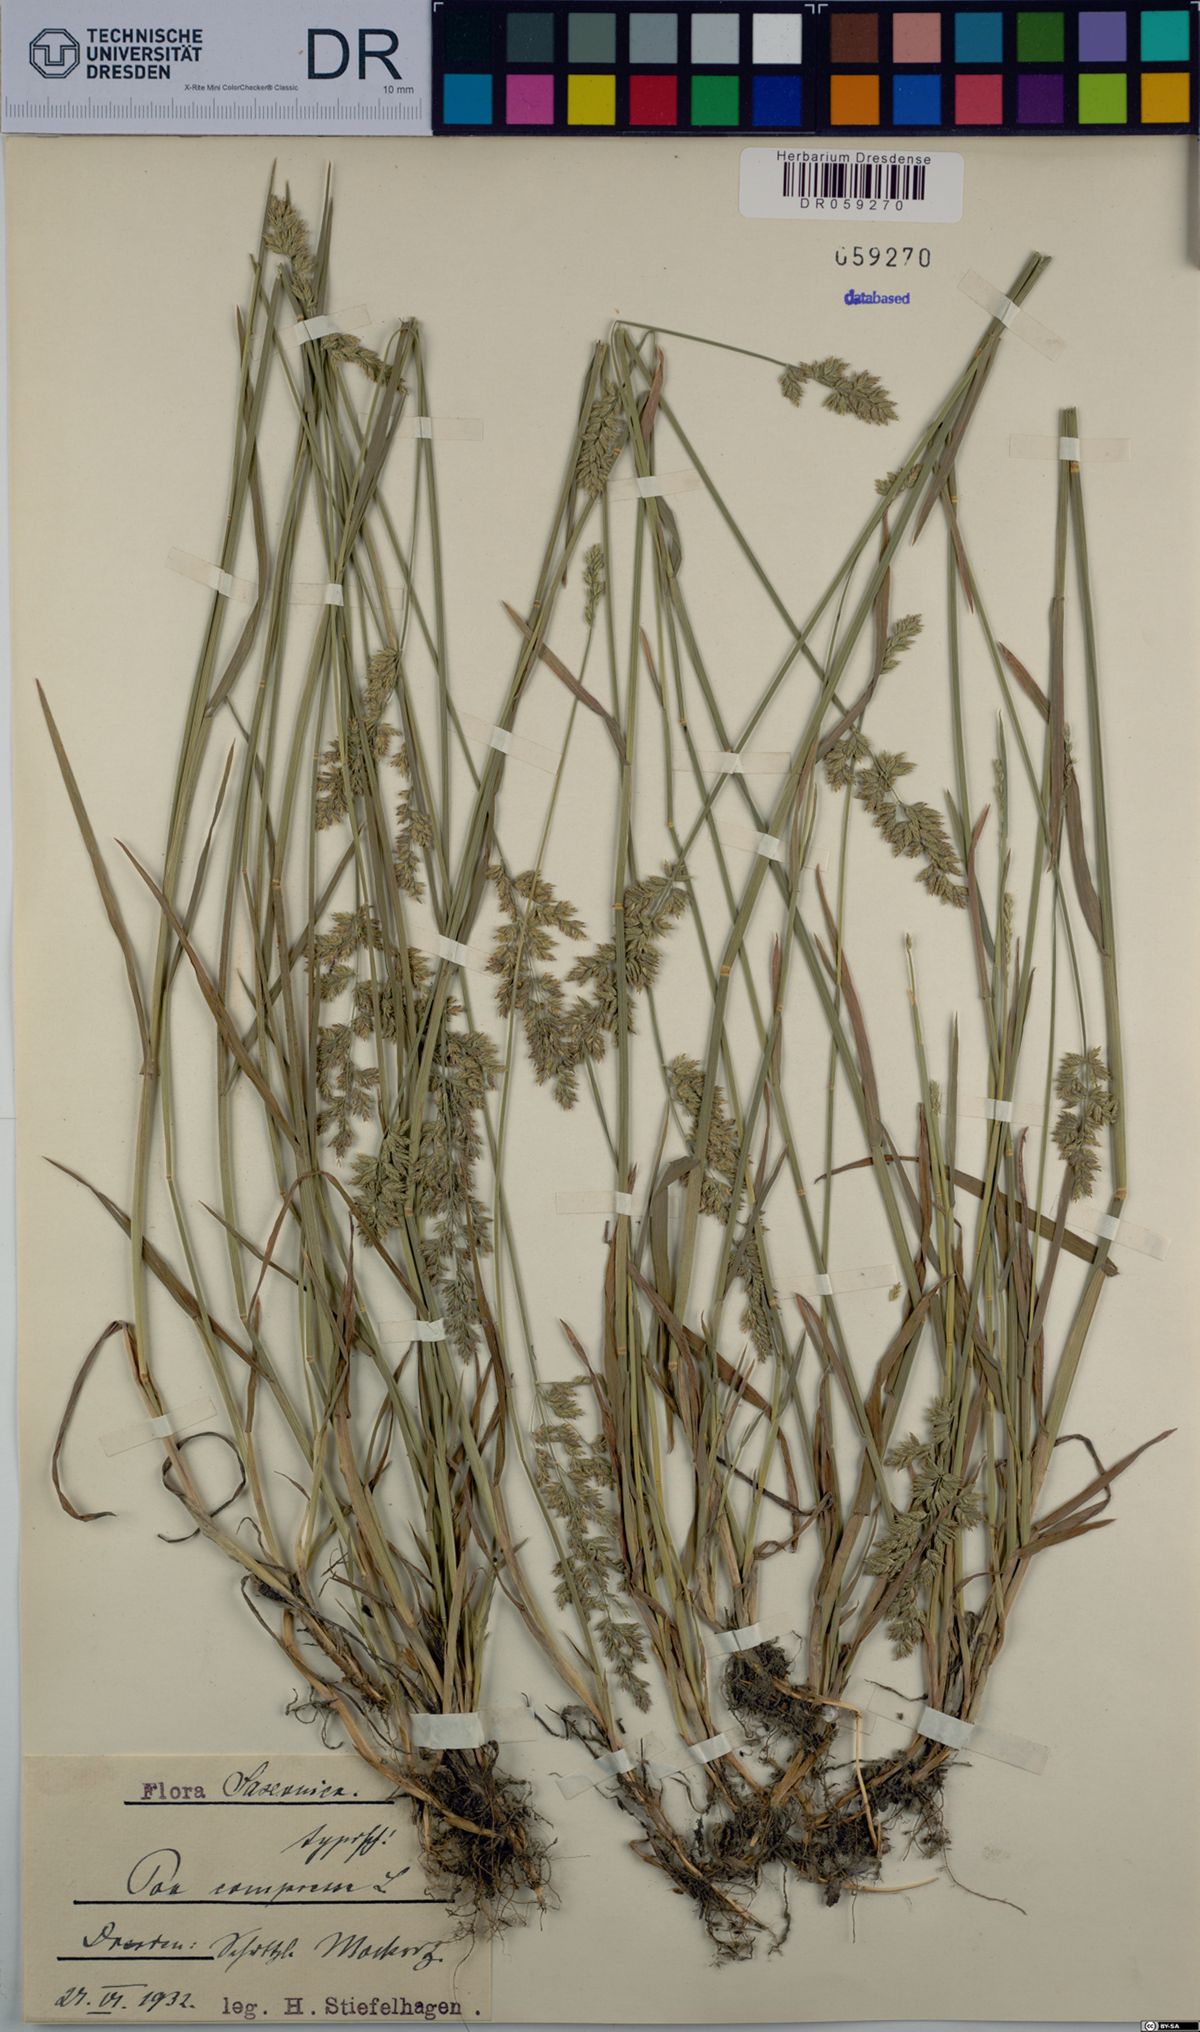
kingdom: Plantae
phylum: Tracheophyta
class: Liliopsida
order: Poales
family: Poaceae
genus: Poa
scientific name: Poa compressa
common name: Canada bluegrass
